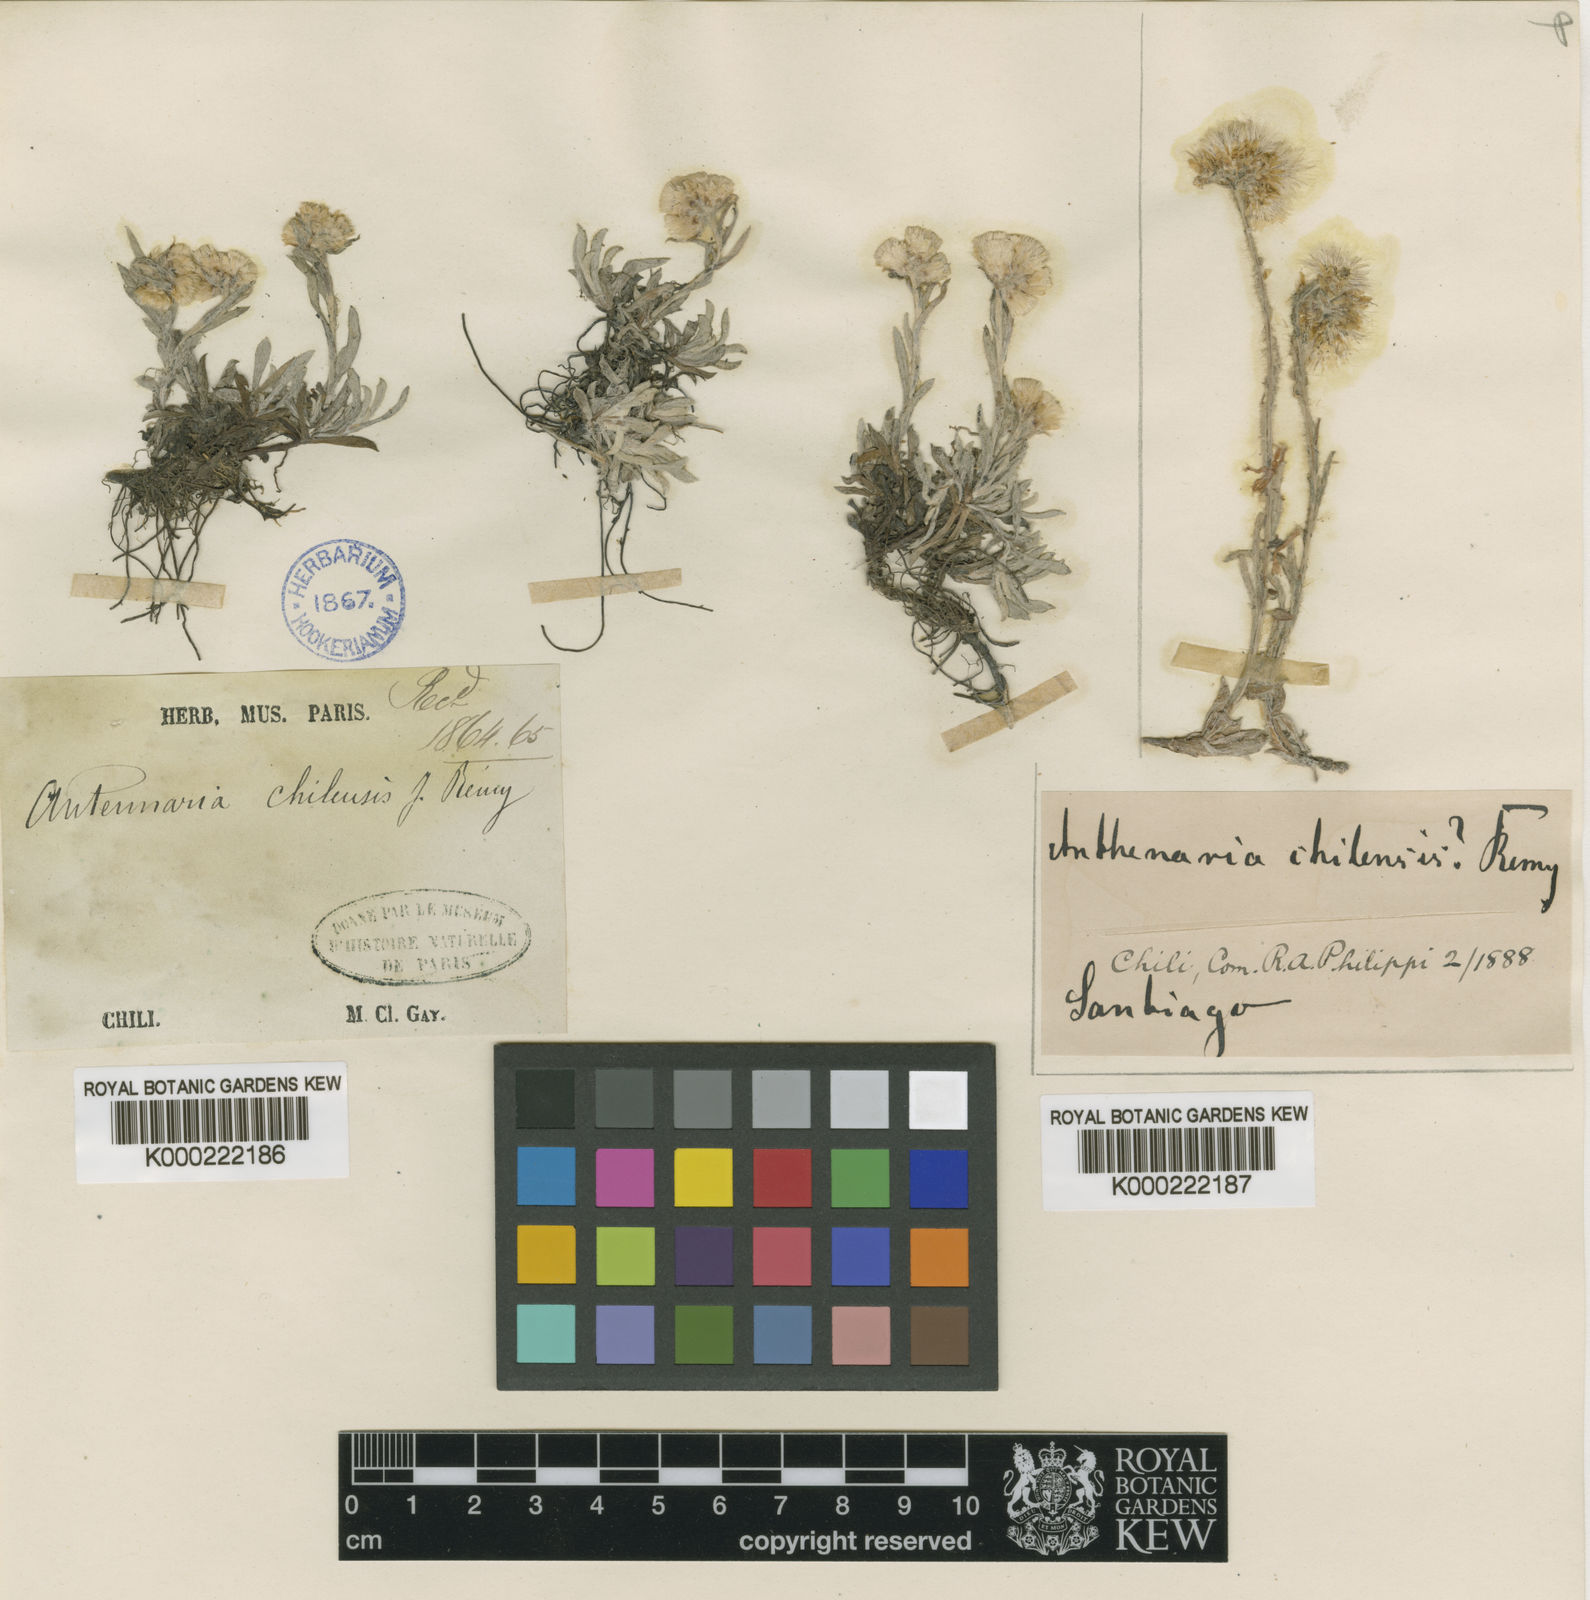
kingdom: Plantae
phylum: Tracheophyta
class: Magnoliopsida
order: Asterales
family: Asteraceae
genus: Antennaria
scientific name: Antennaria
